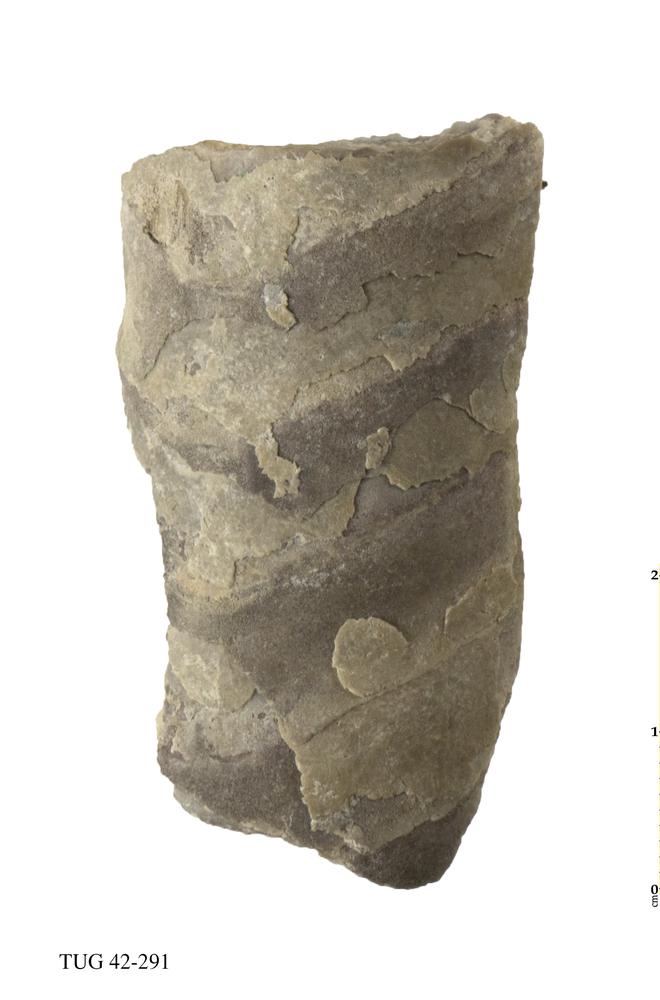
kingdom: Animalia
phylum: Mollusca
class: Cephalopoda
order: Orthocerida
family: Orthoceratidae
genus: Orthoceras
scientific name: Orthoceras
